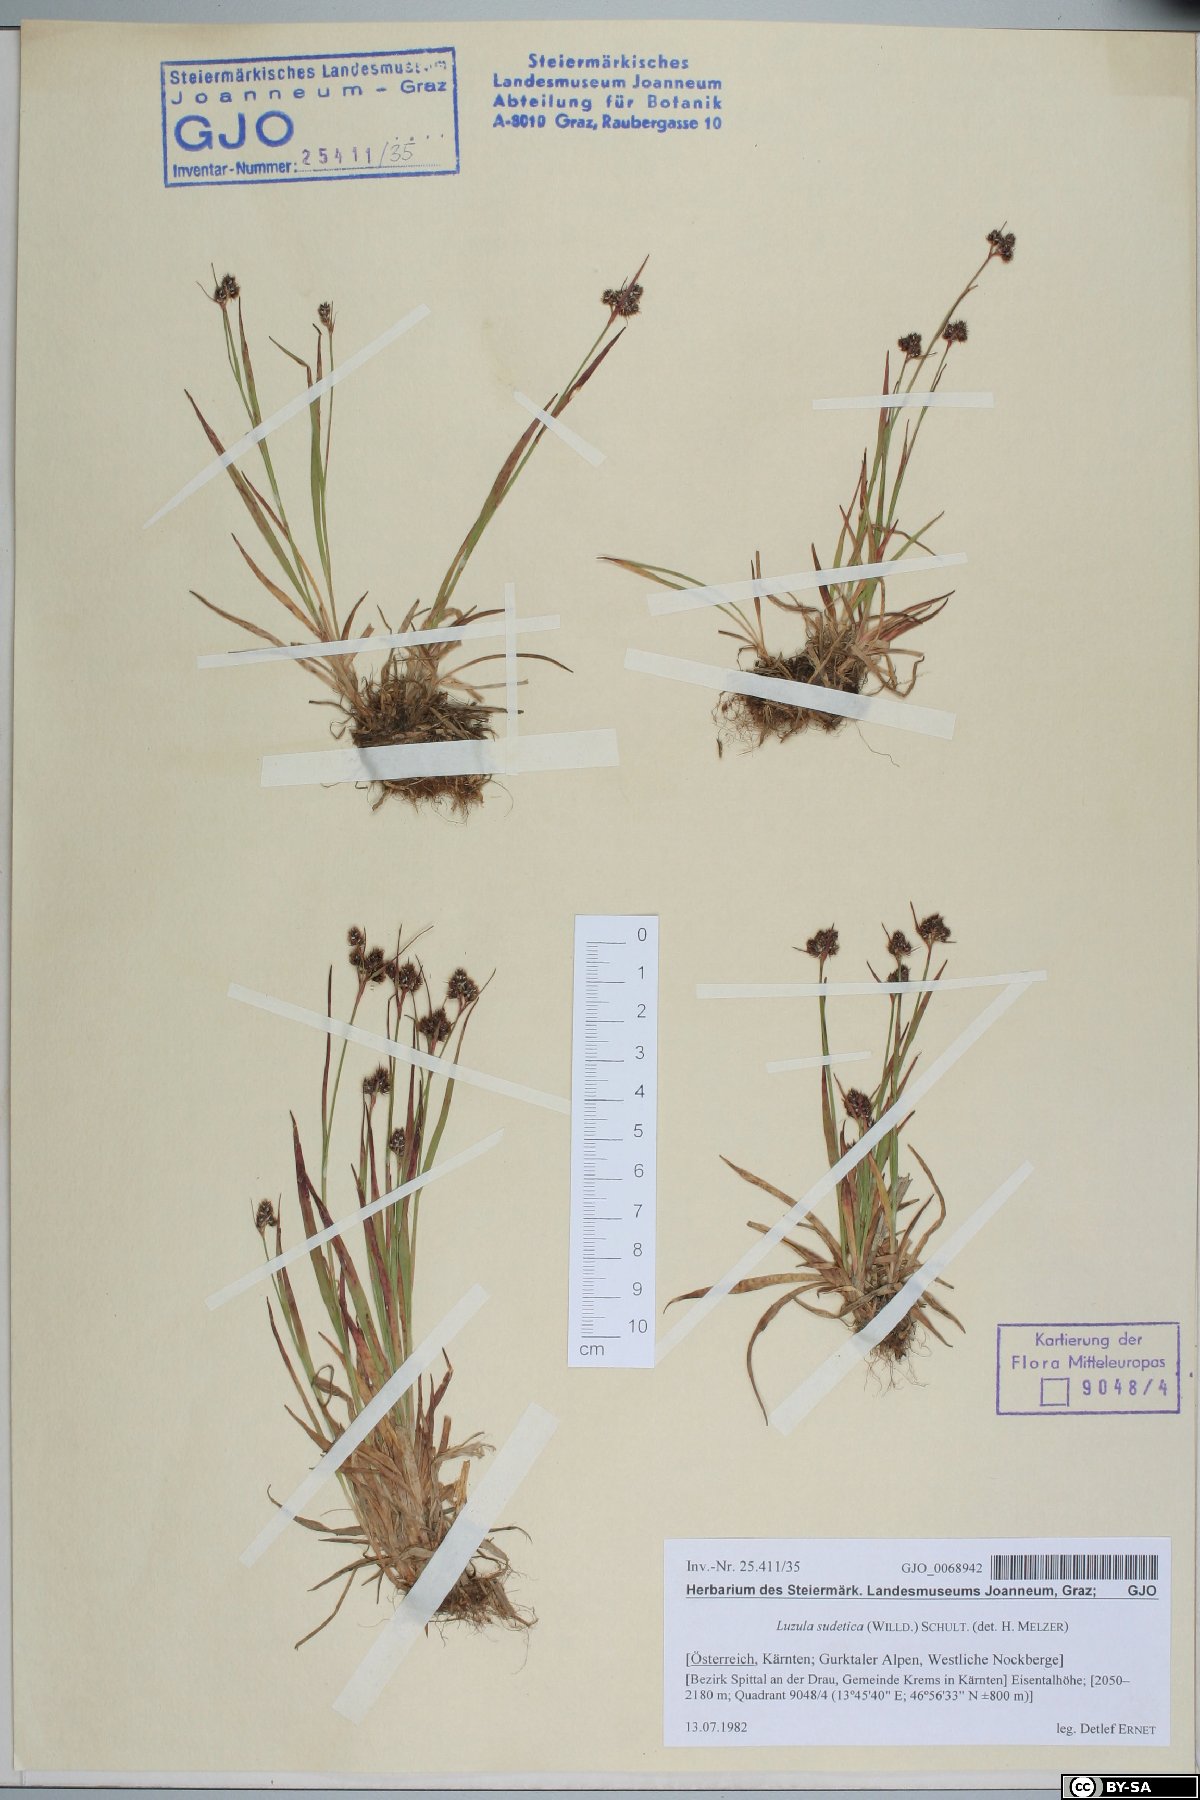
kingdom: Plantae
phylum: Tracheophyta
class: Liliopsida
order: Poales
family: Juncaceae
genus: Luzula
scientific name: Luzula sudetica
